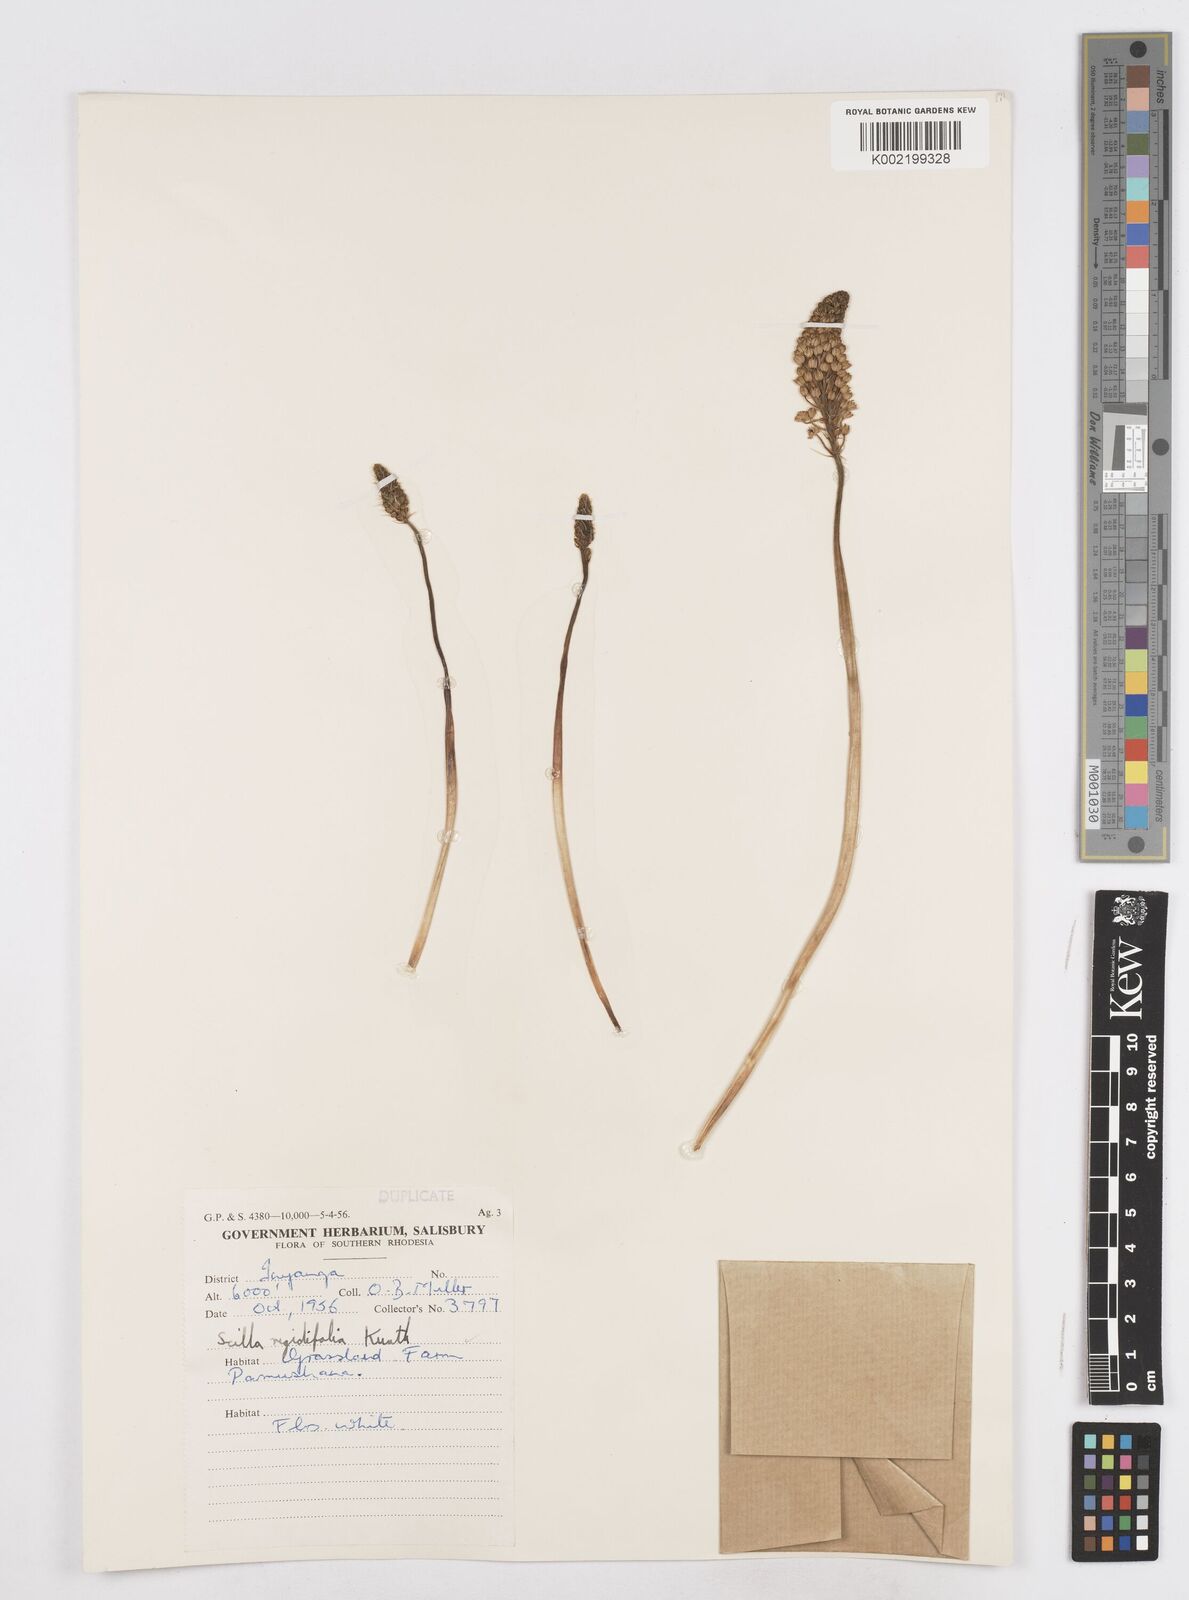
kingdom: Plantae
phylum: Tracheophyta
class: Liliopsida
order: Asparagales
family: Asparagaceae
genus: Schizocarphus
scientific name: Schizocarphus nervosus
